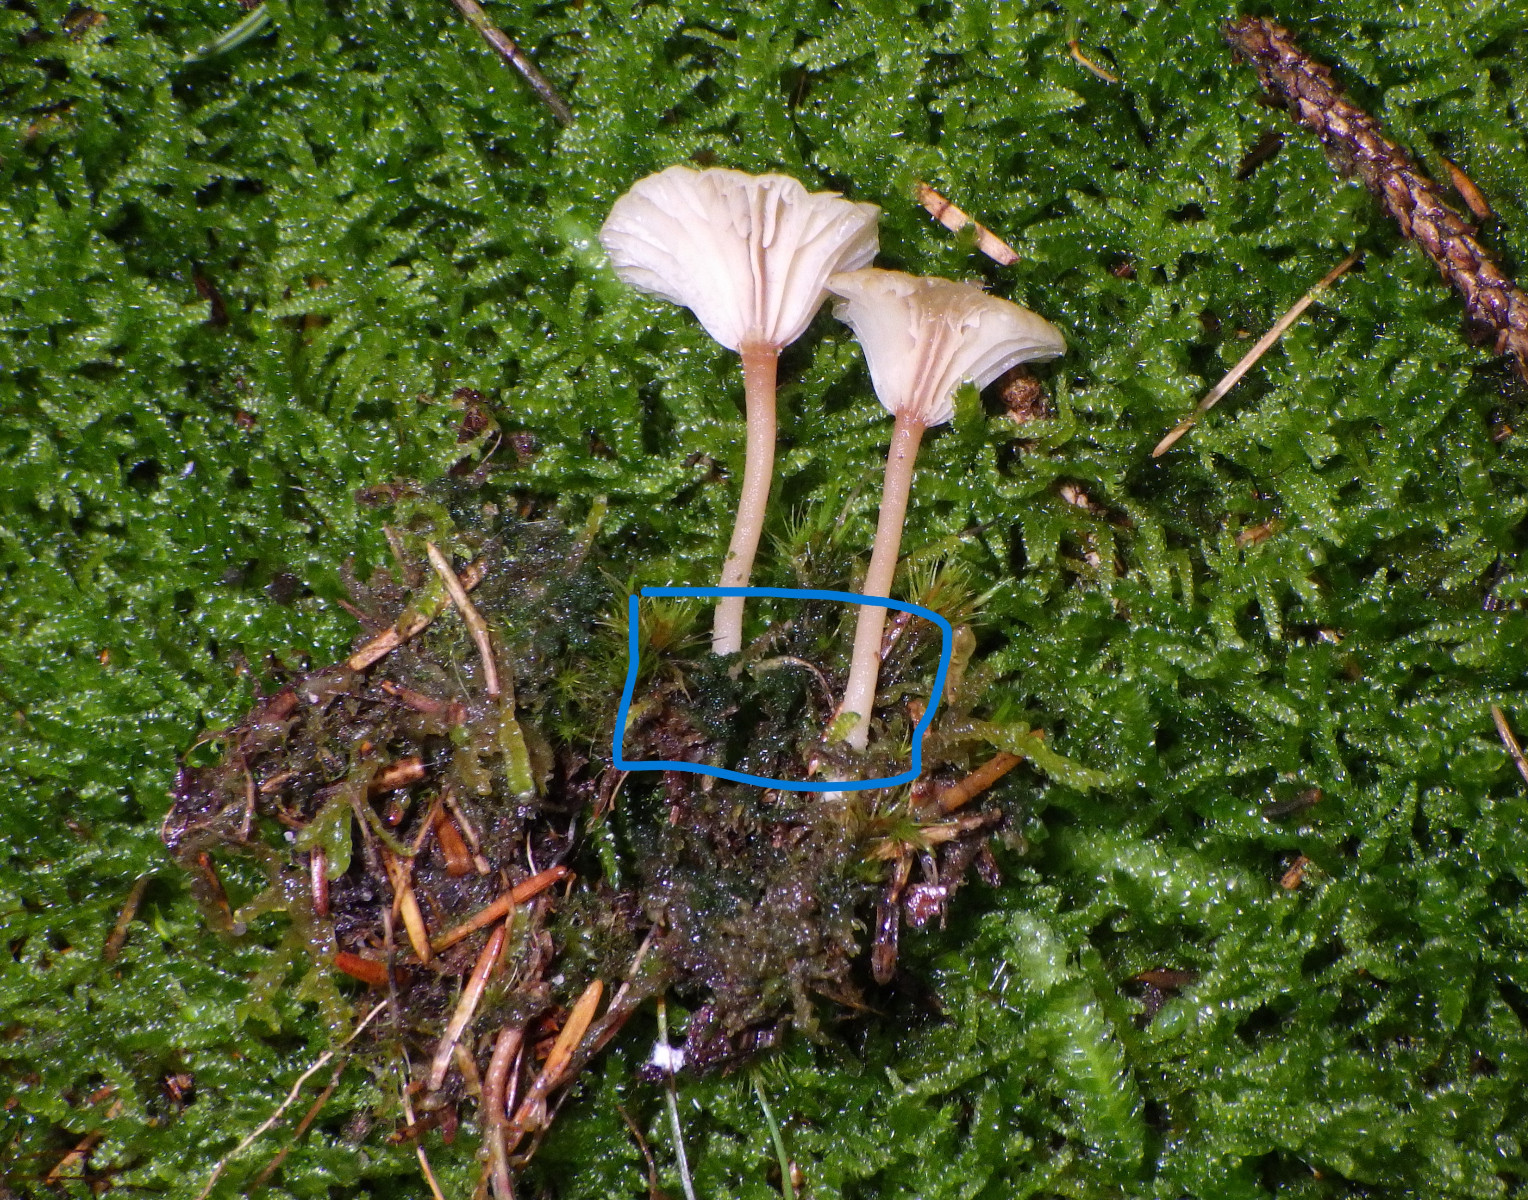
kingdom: Fungi
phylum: Basidiomycota
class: Agaricomycetes
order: Agaricales
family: Hygrophoraceae
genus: Lichenomphalia
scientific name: Lichenomphalia umbellifera
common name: tørve-lavhat
